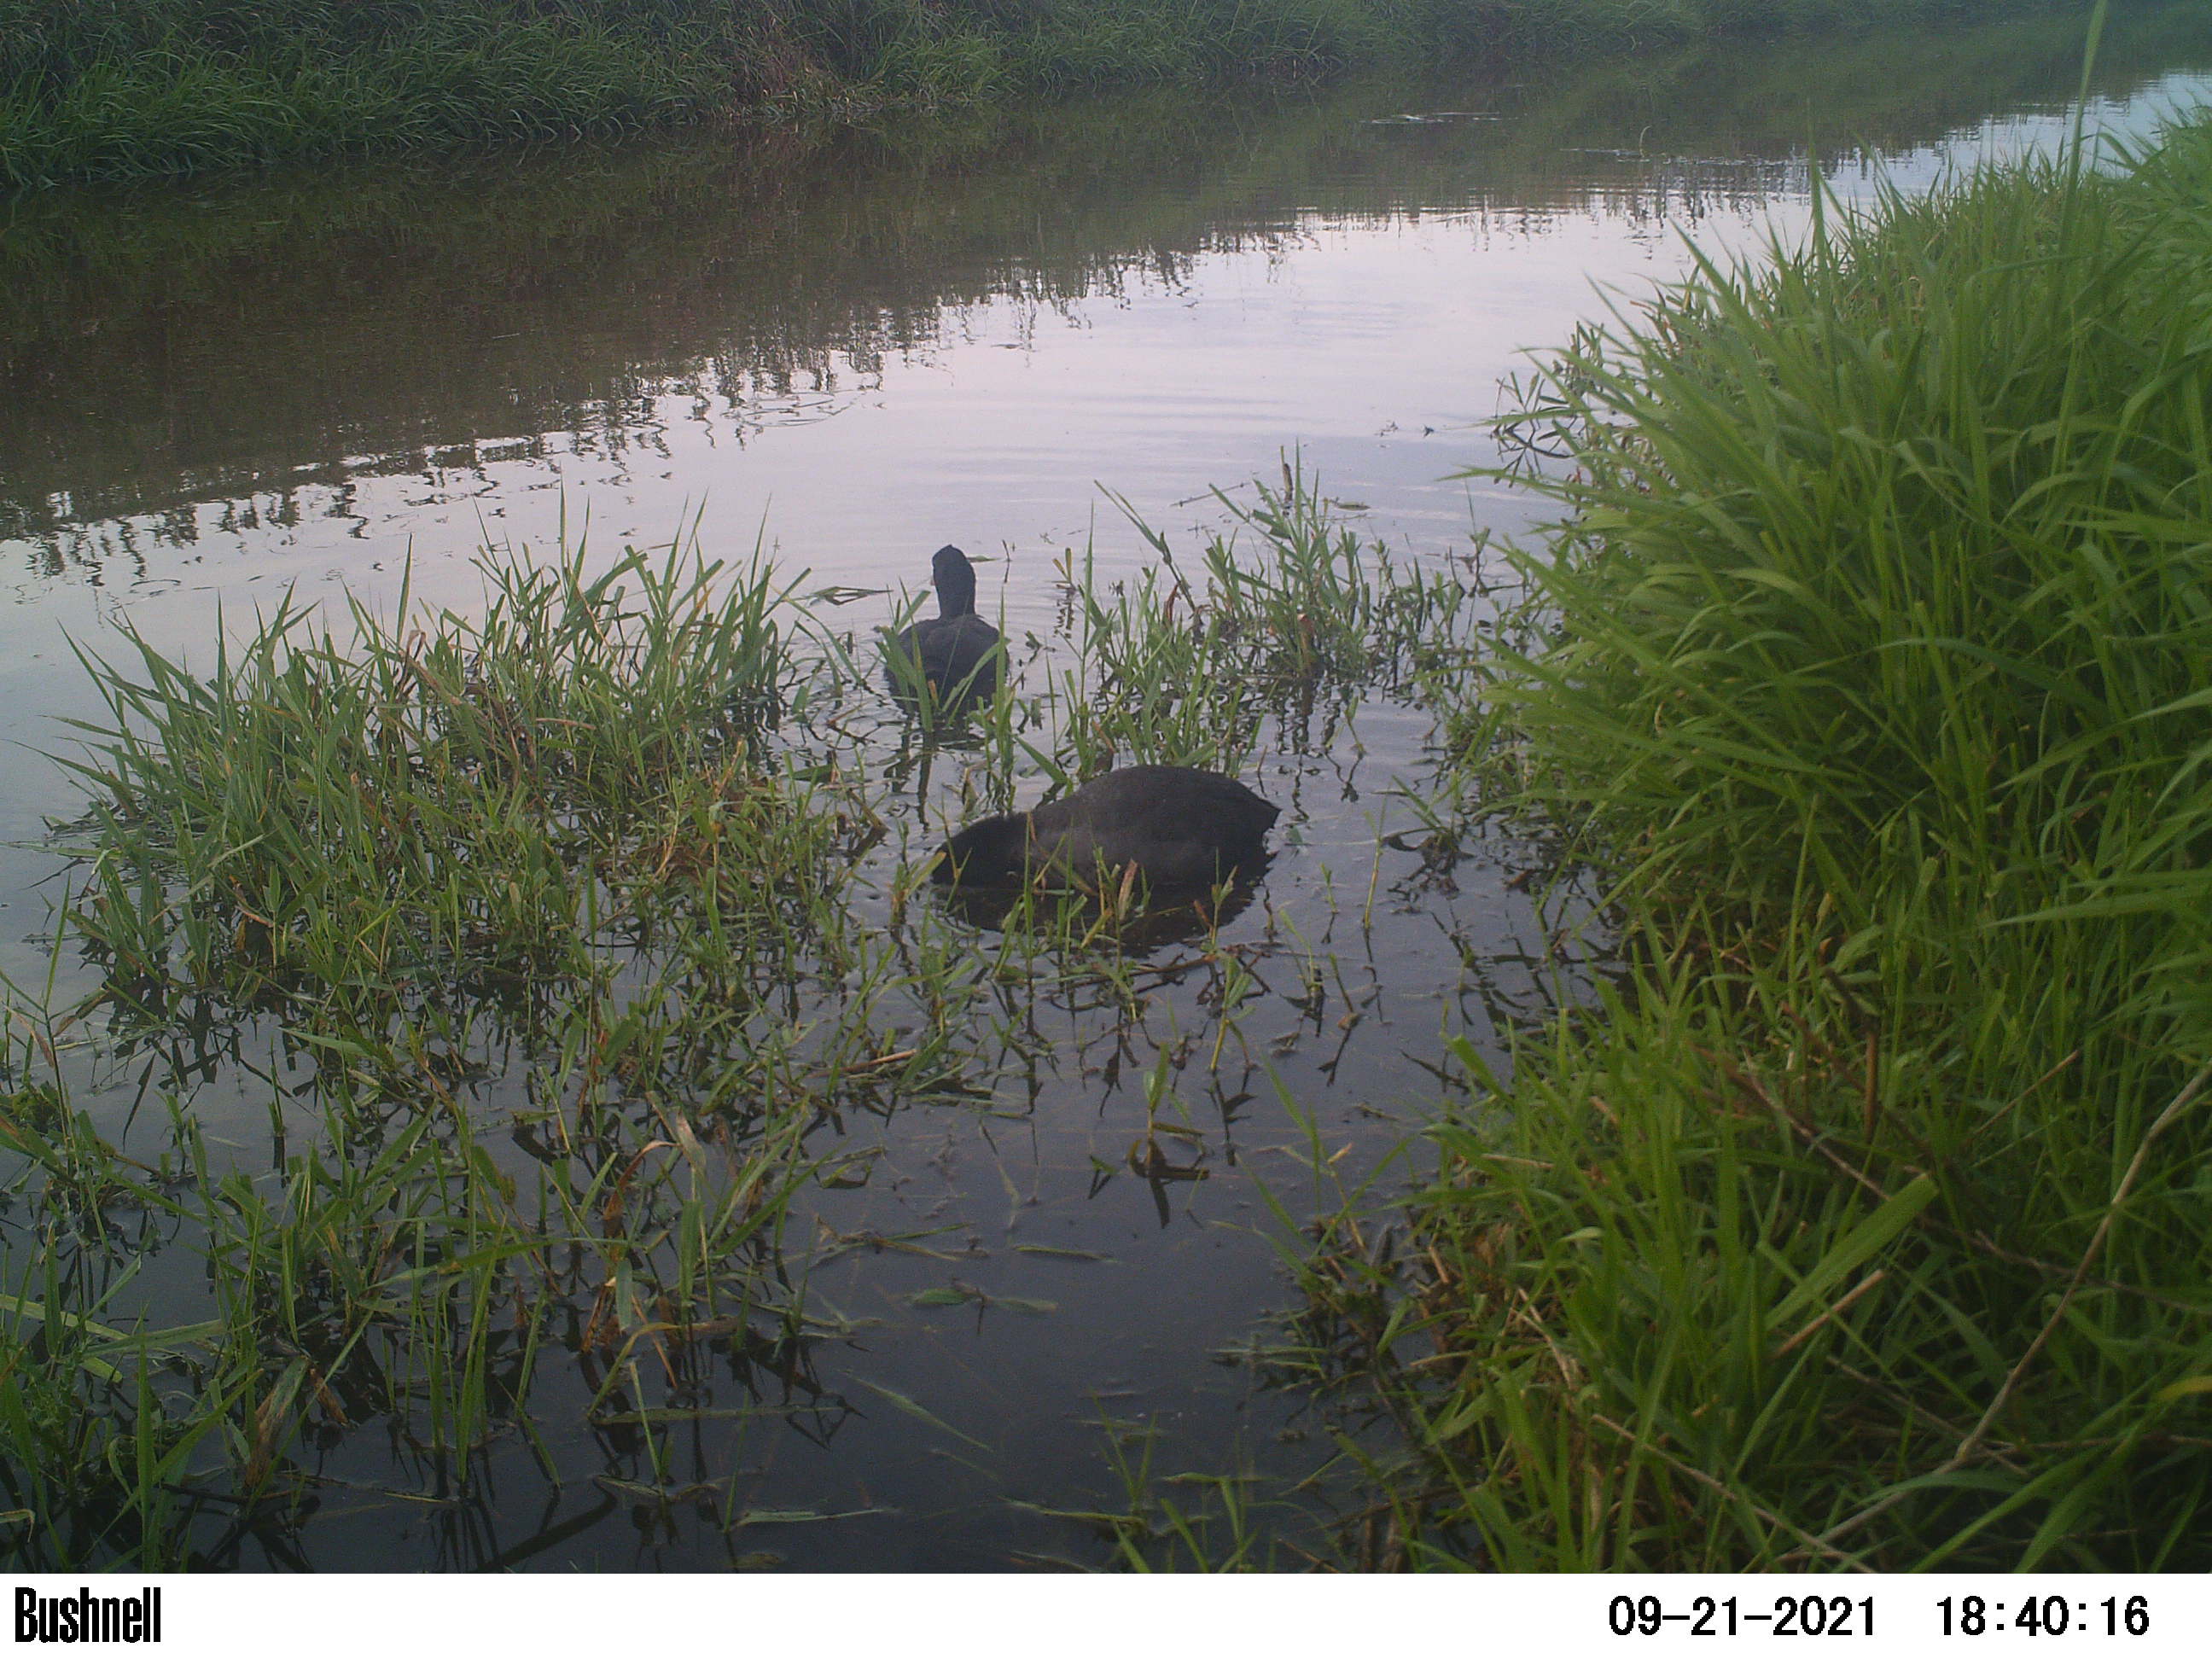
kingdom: Animalia
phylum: Chordata
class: Aves
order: Gruiformes
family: Rallidae
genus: Fulica
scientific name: Fulica atra
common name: Eurasian coot
